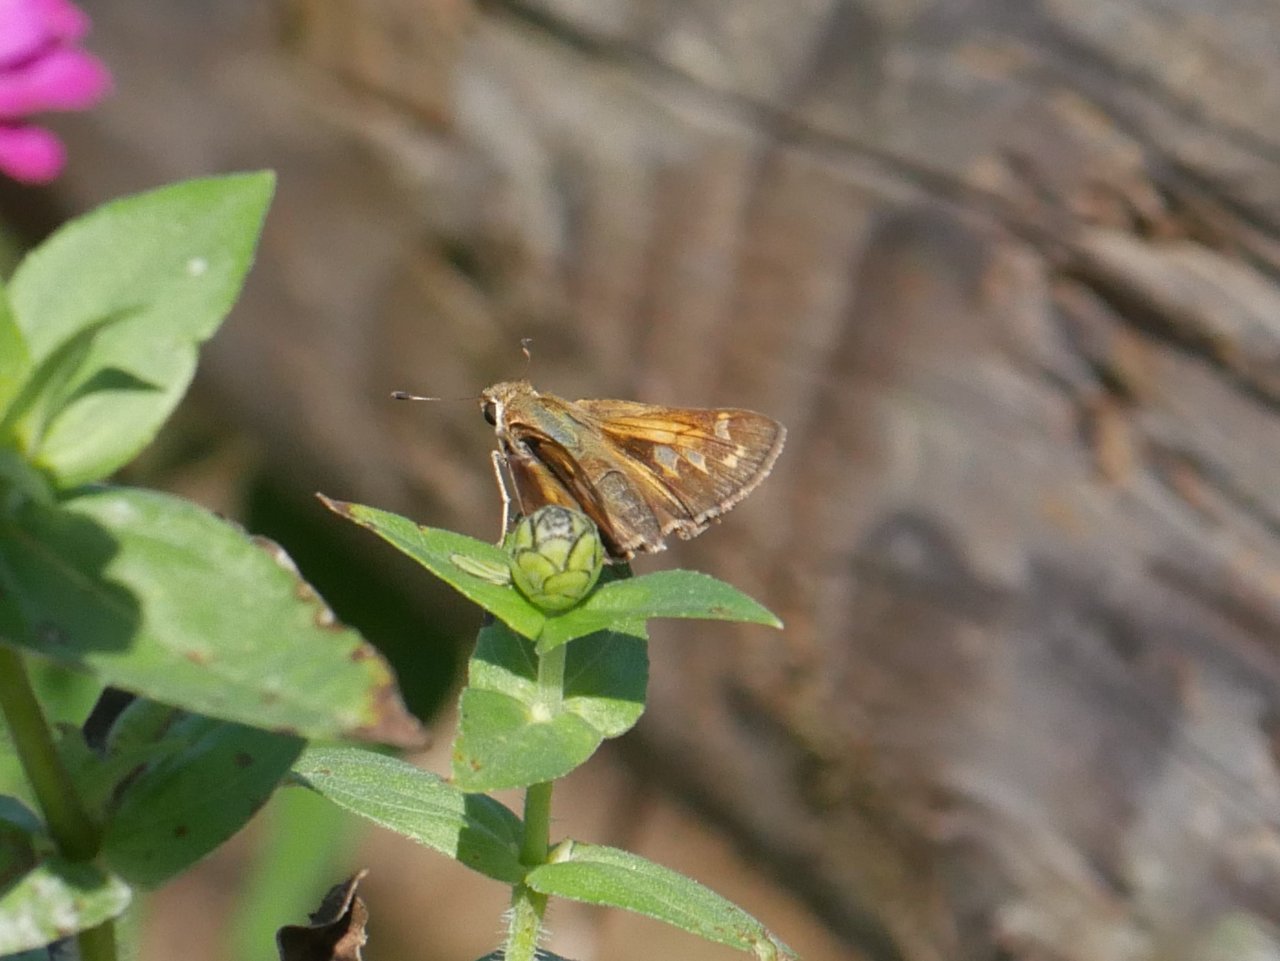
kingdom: Animalia
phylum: Arthropoda
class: Insecta
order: Lepidoptera
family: Hesperiidae
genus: Atalopedes
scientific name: Atalopedes campestris
